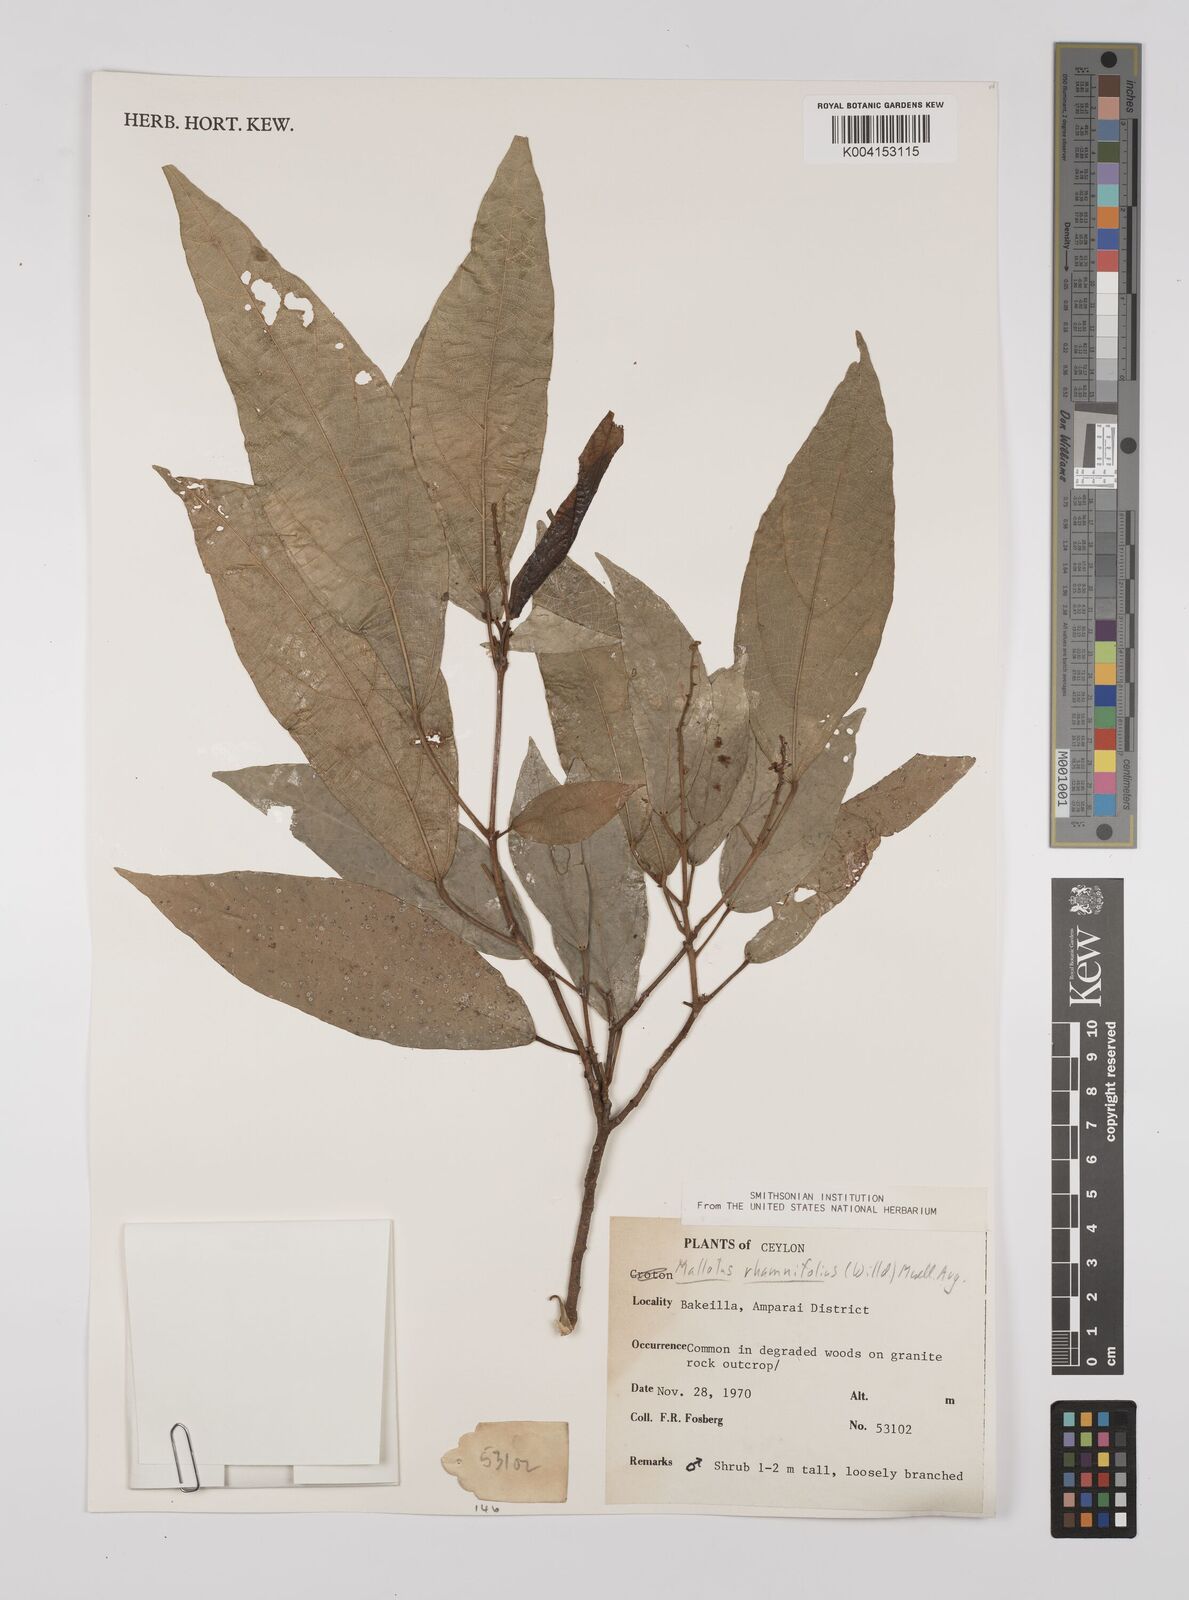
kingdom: Plantae
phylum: Tracheophyta
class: Magnoliopsida
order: Malpighiales
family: Euphorbiaceae
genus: Mallotus
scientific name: Mallotus rhamnifolius
